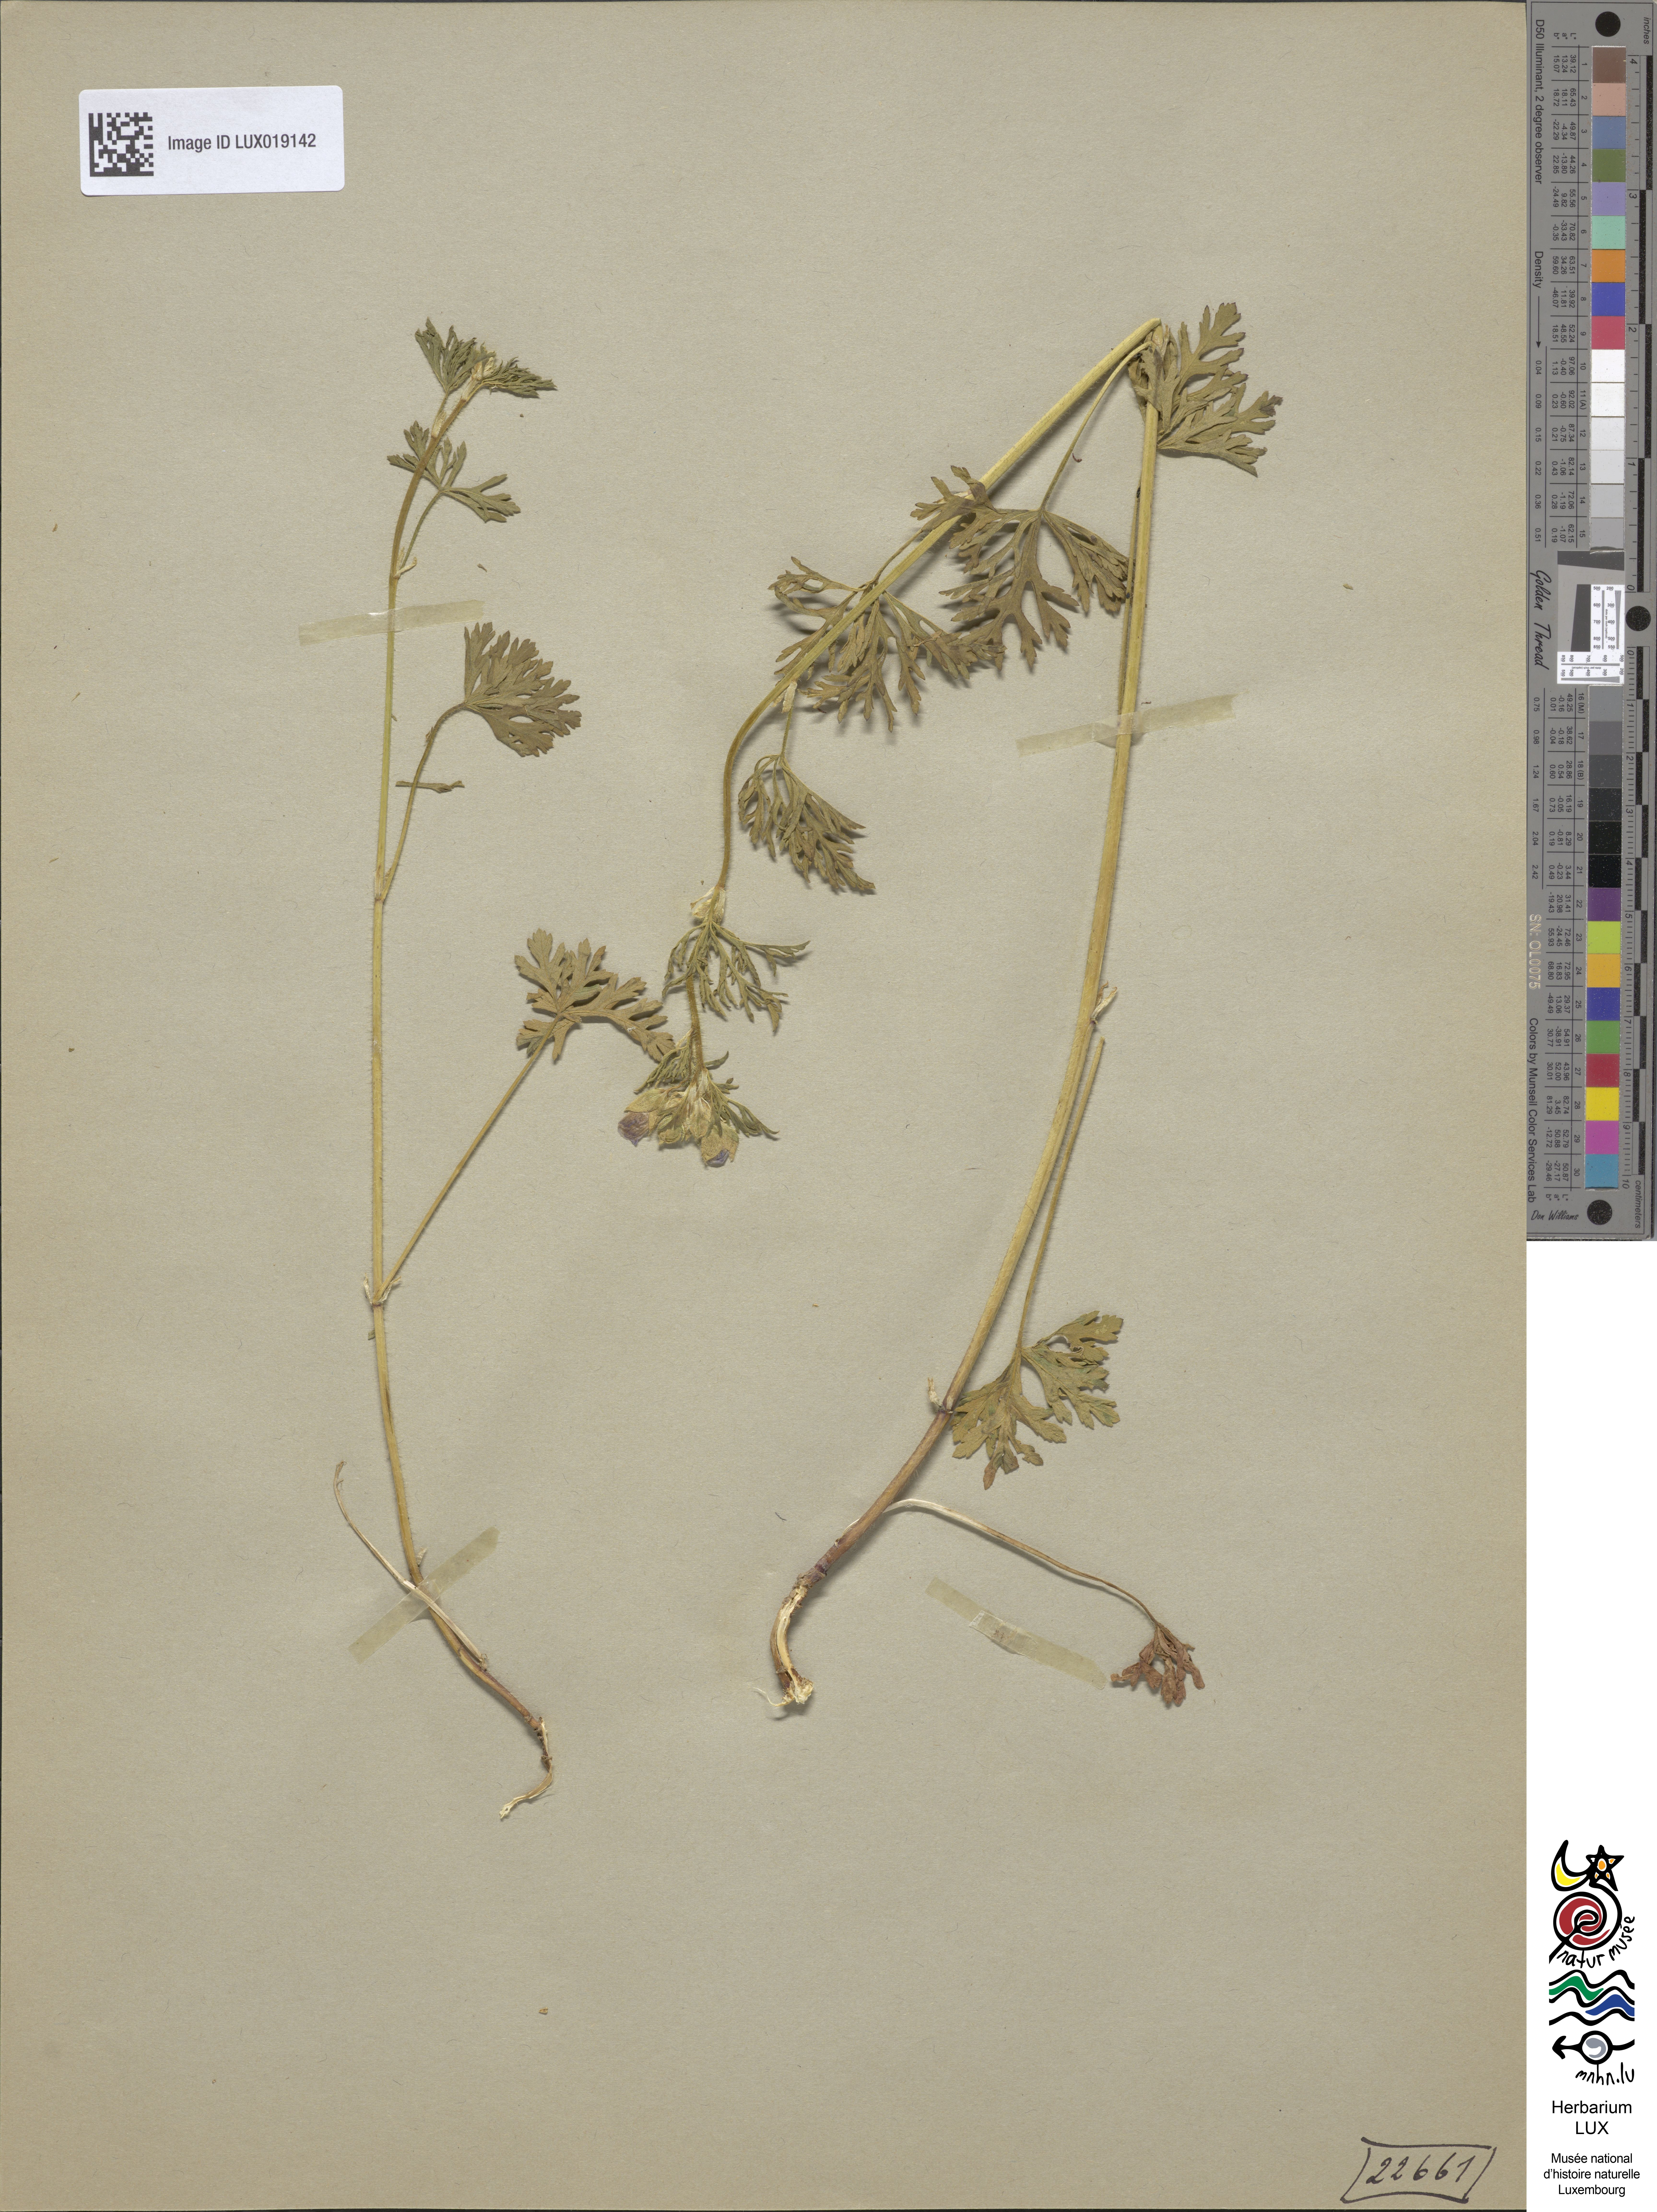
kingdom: Plantae
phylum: Tracheophyta
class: Magnoliopsida
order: Malvales
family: Malvaceae
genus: Malva
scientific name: Malva moschata
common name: Musk mallow
